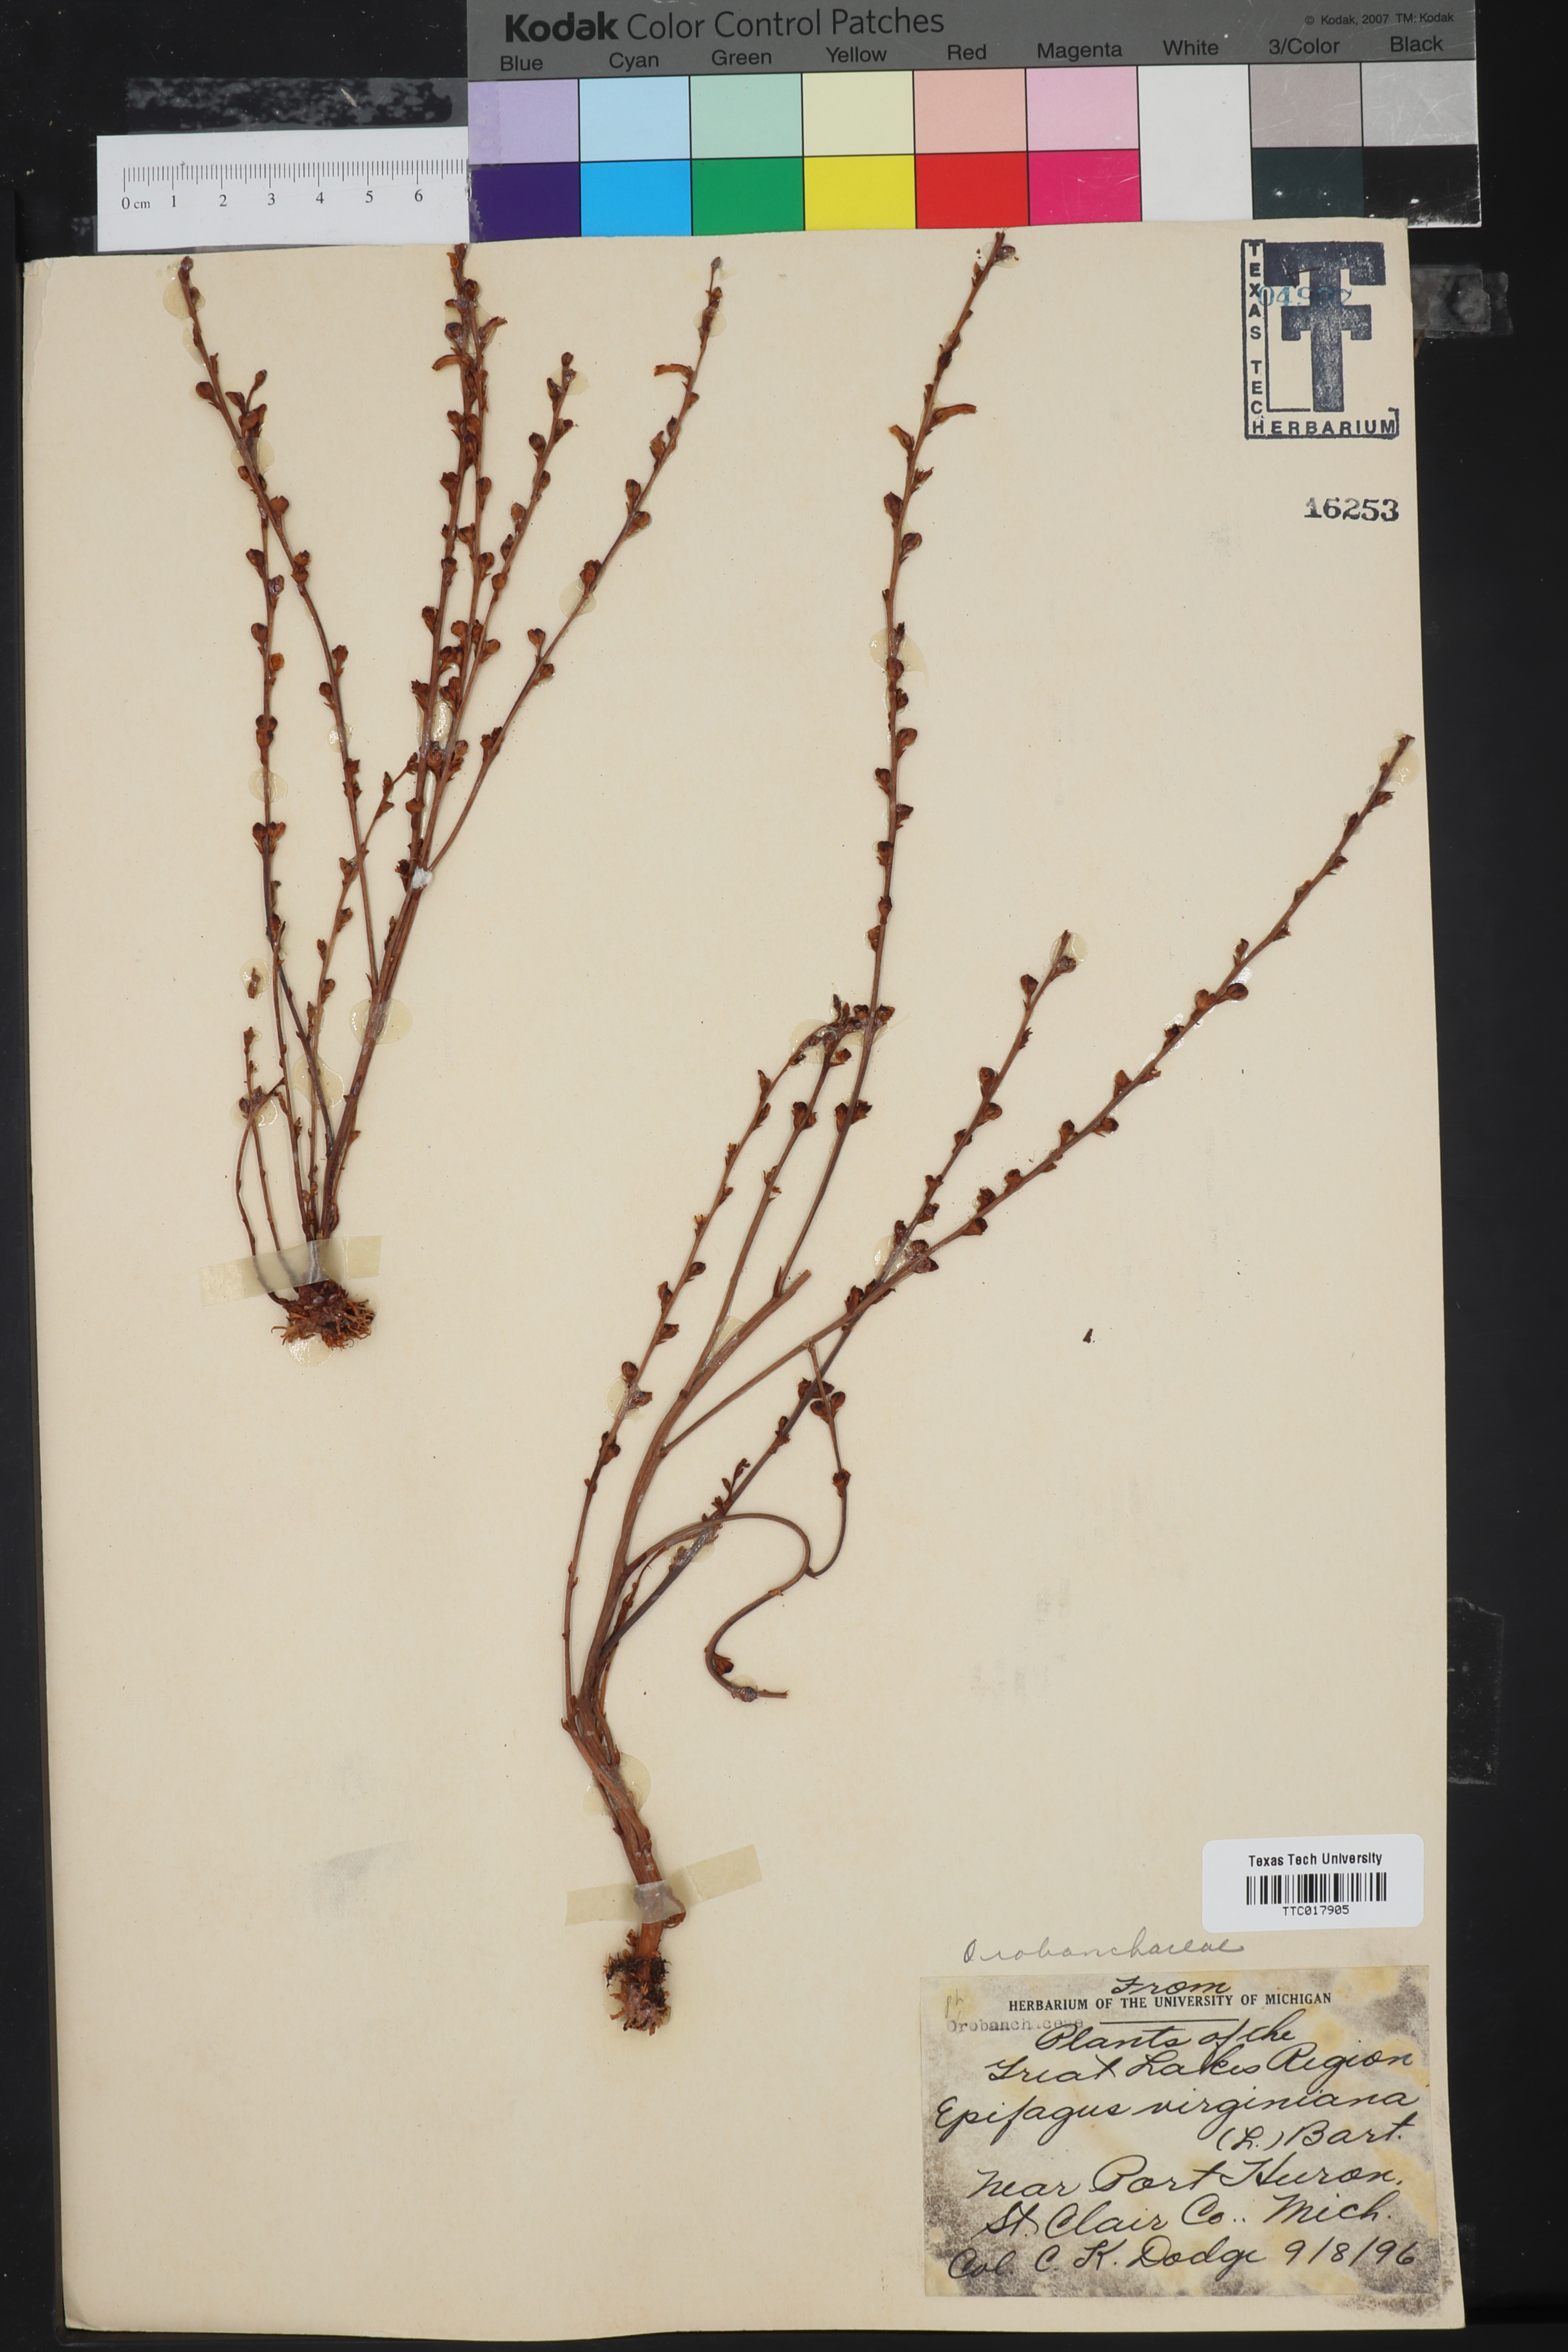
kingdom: Plantae
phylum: Tracheophyta
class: Magnoliopsida
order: Lamiales
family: Orobanchaceae
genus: Epifagus
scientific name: Epifagus virginiana
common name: Beechdrops
